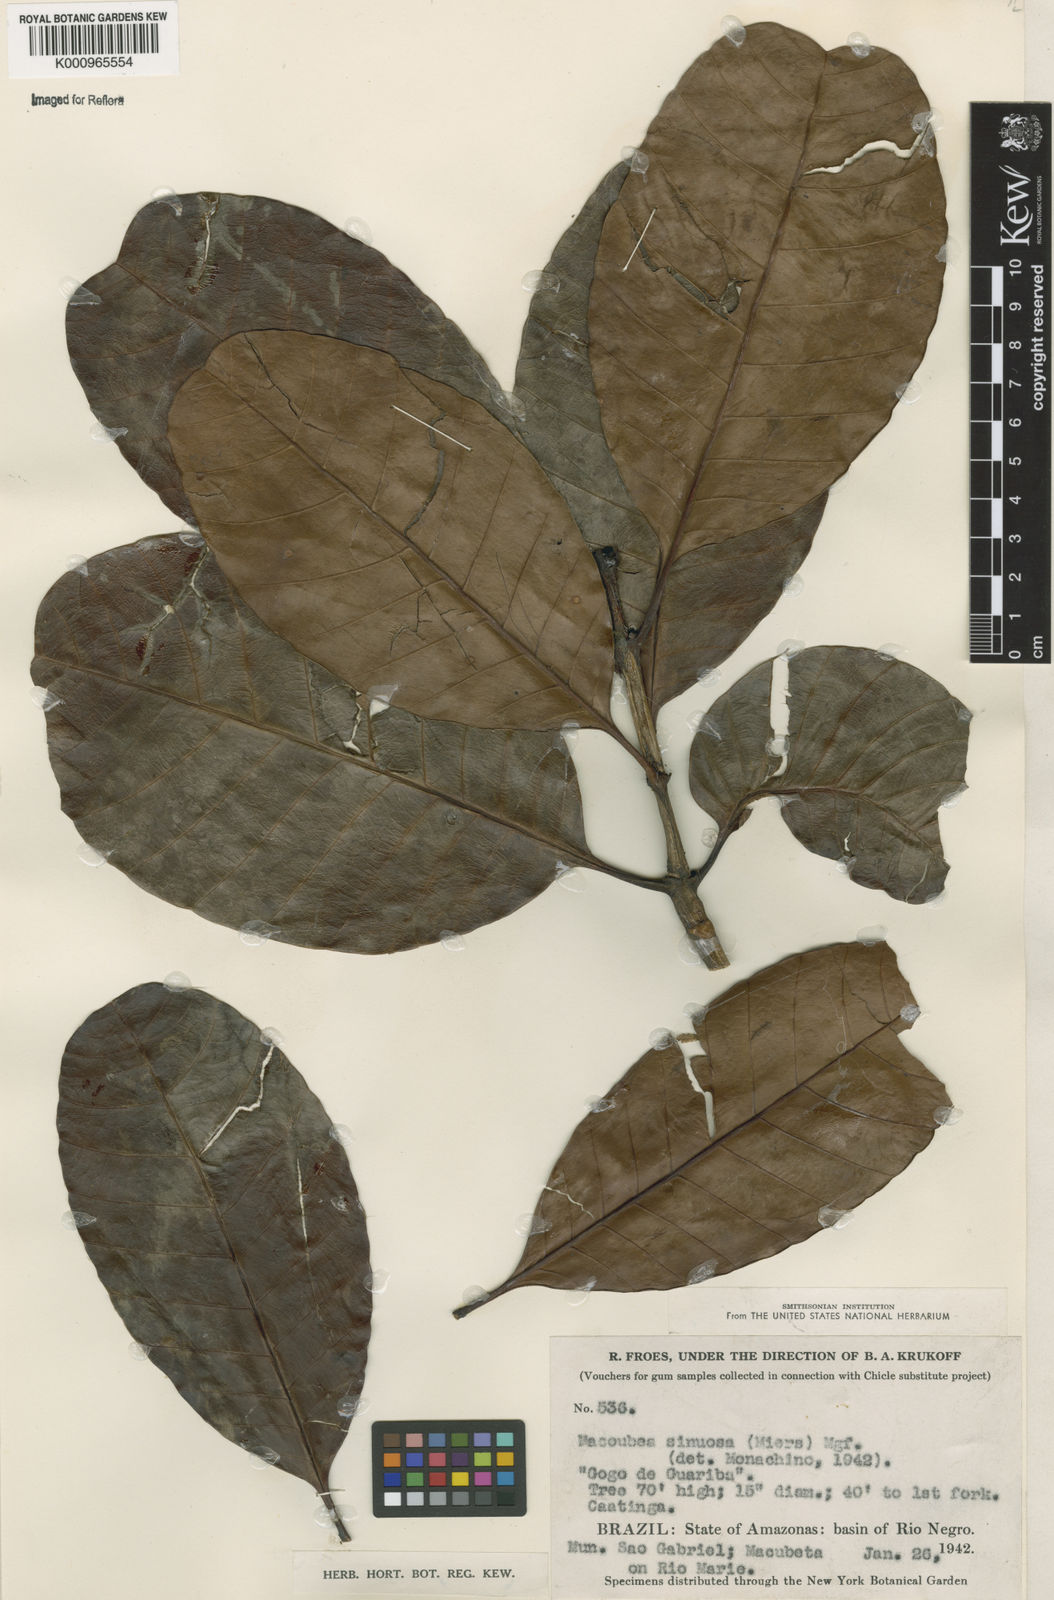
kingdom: Plantae
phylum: Tracheophyta
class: Magnoliopsida
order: Gentianales
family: Apocynaceae
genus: Macoubea
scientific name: Macoubea
